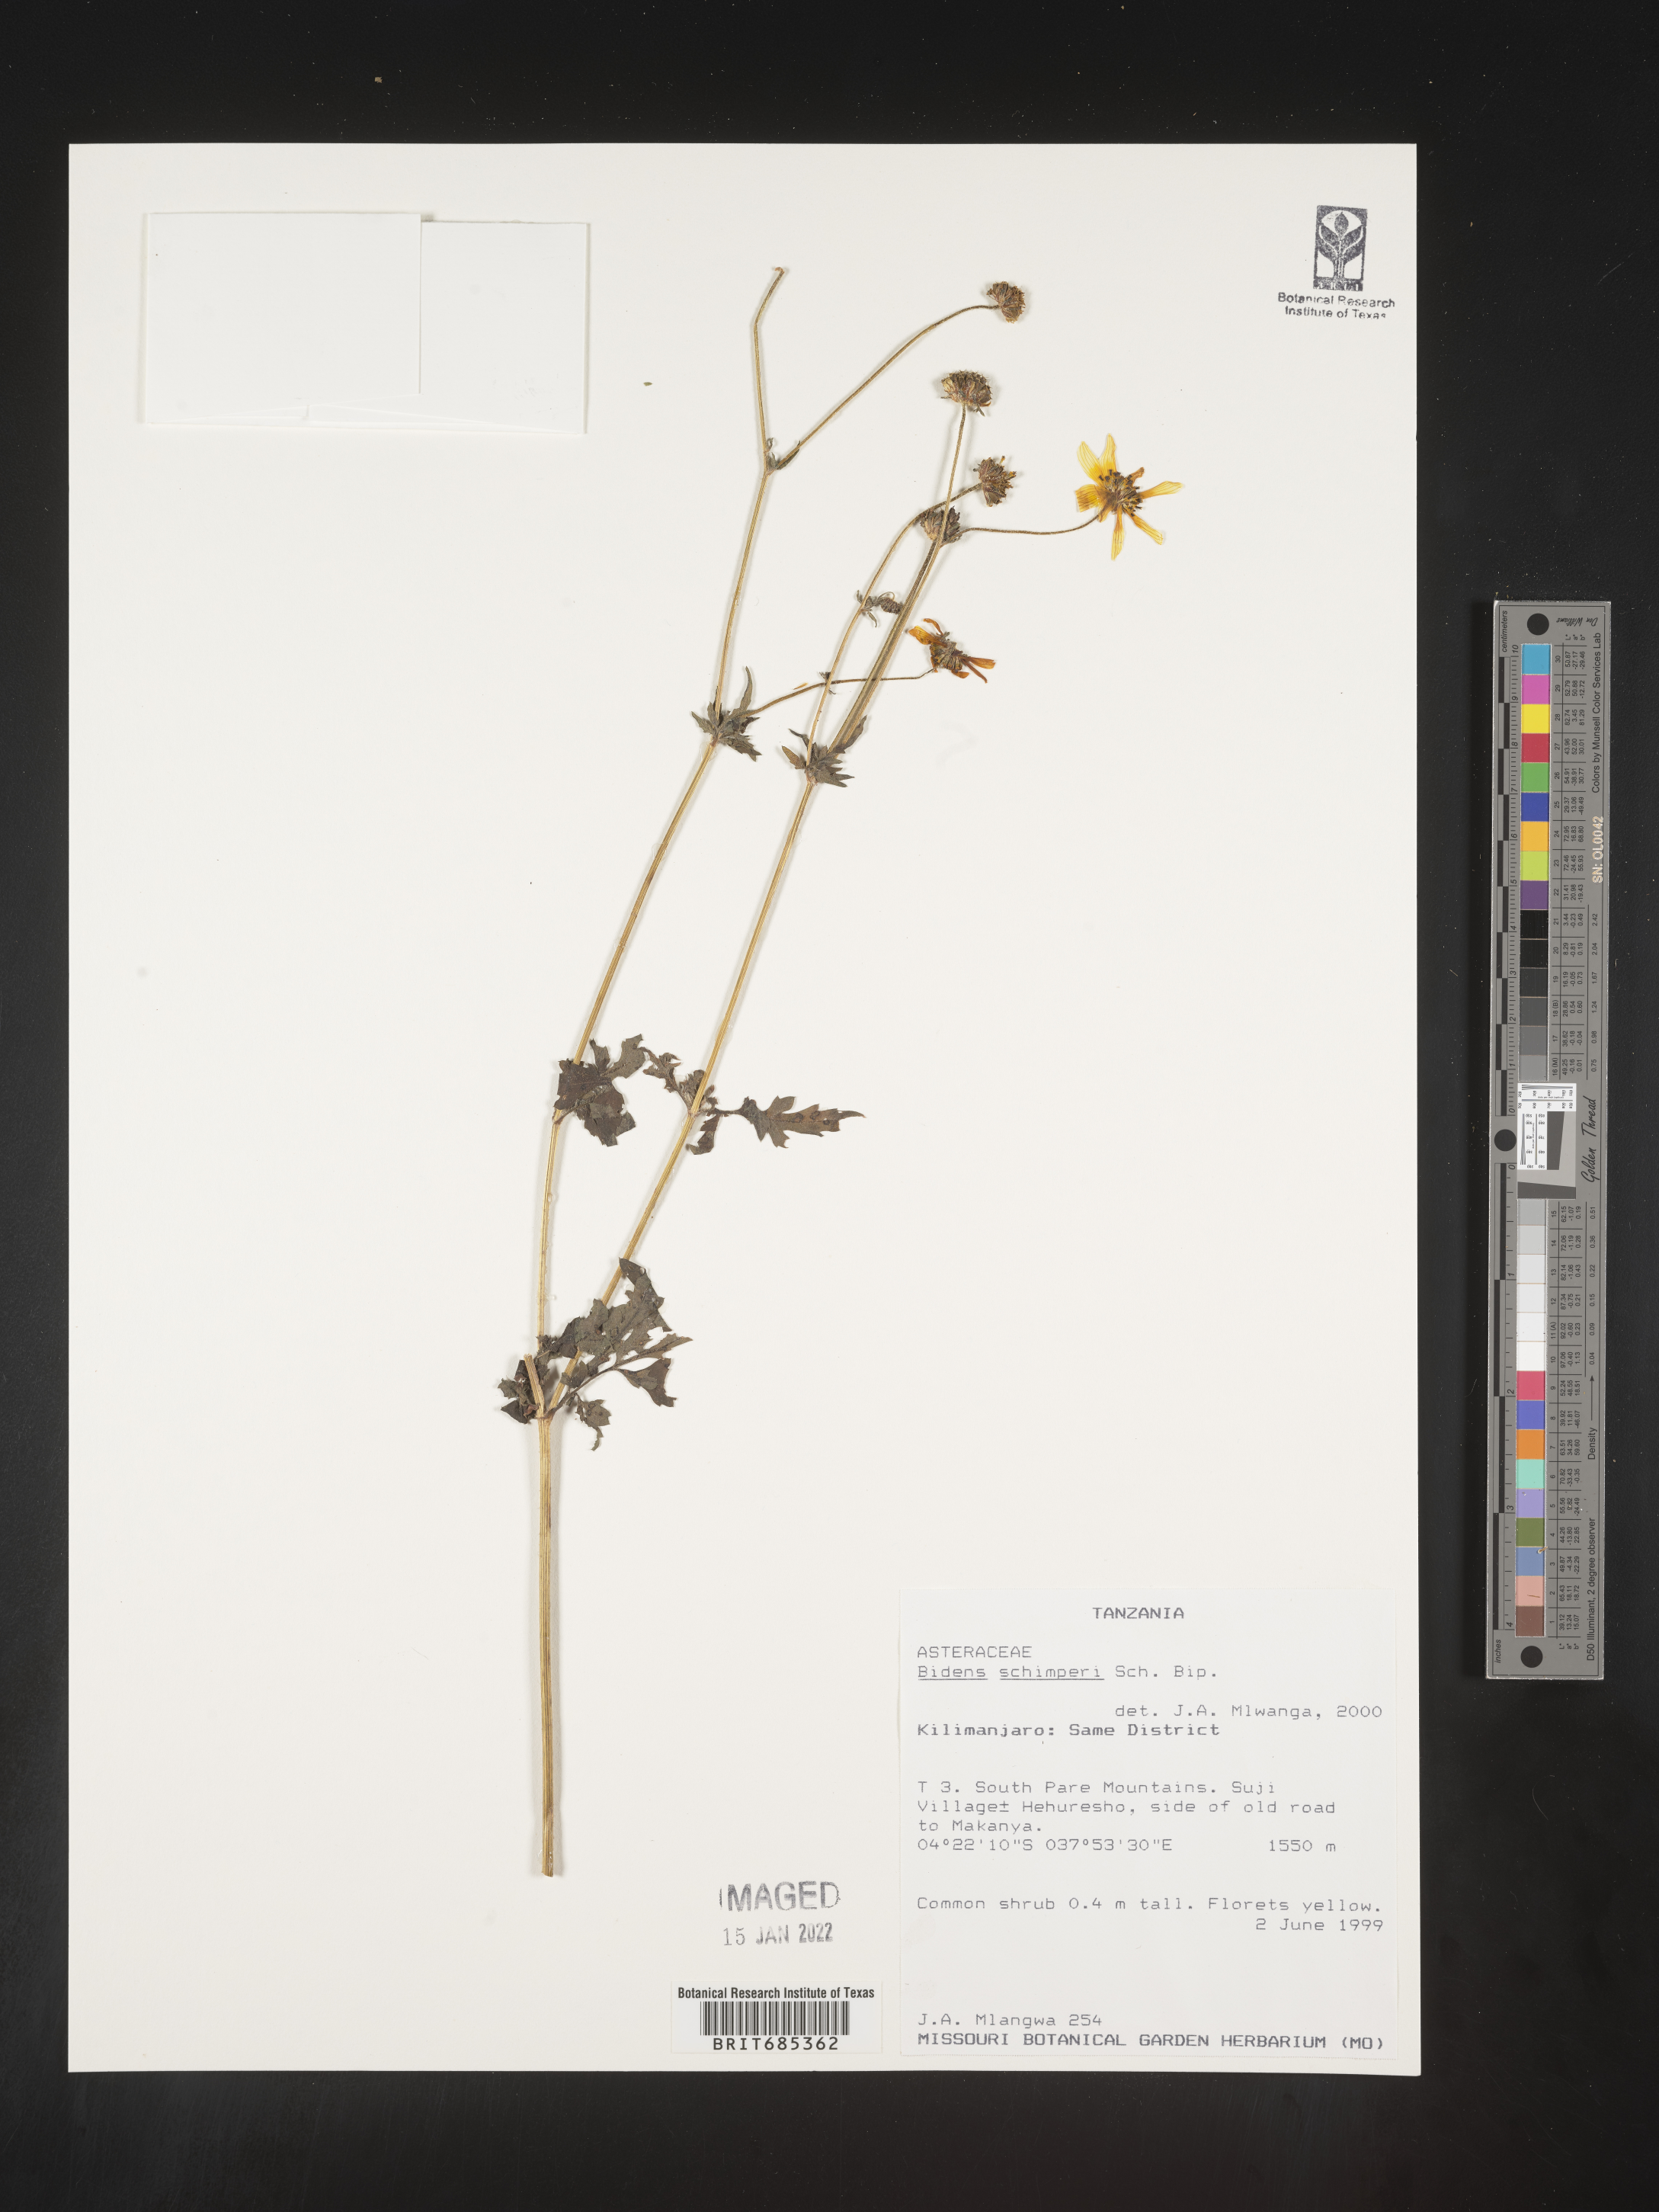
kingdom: Plantae
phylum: Tracheophyta
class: Magnoliopsida
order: Asterales
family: Asteraceae
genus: Bidens
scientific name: Bidens
